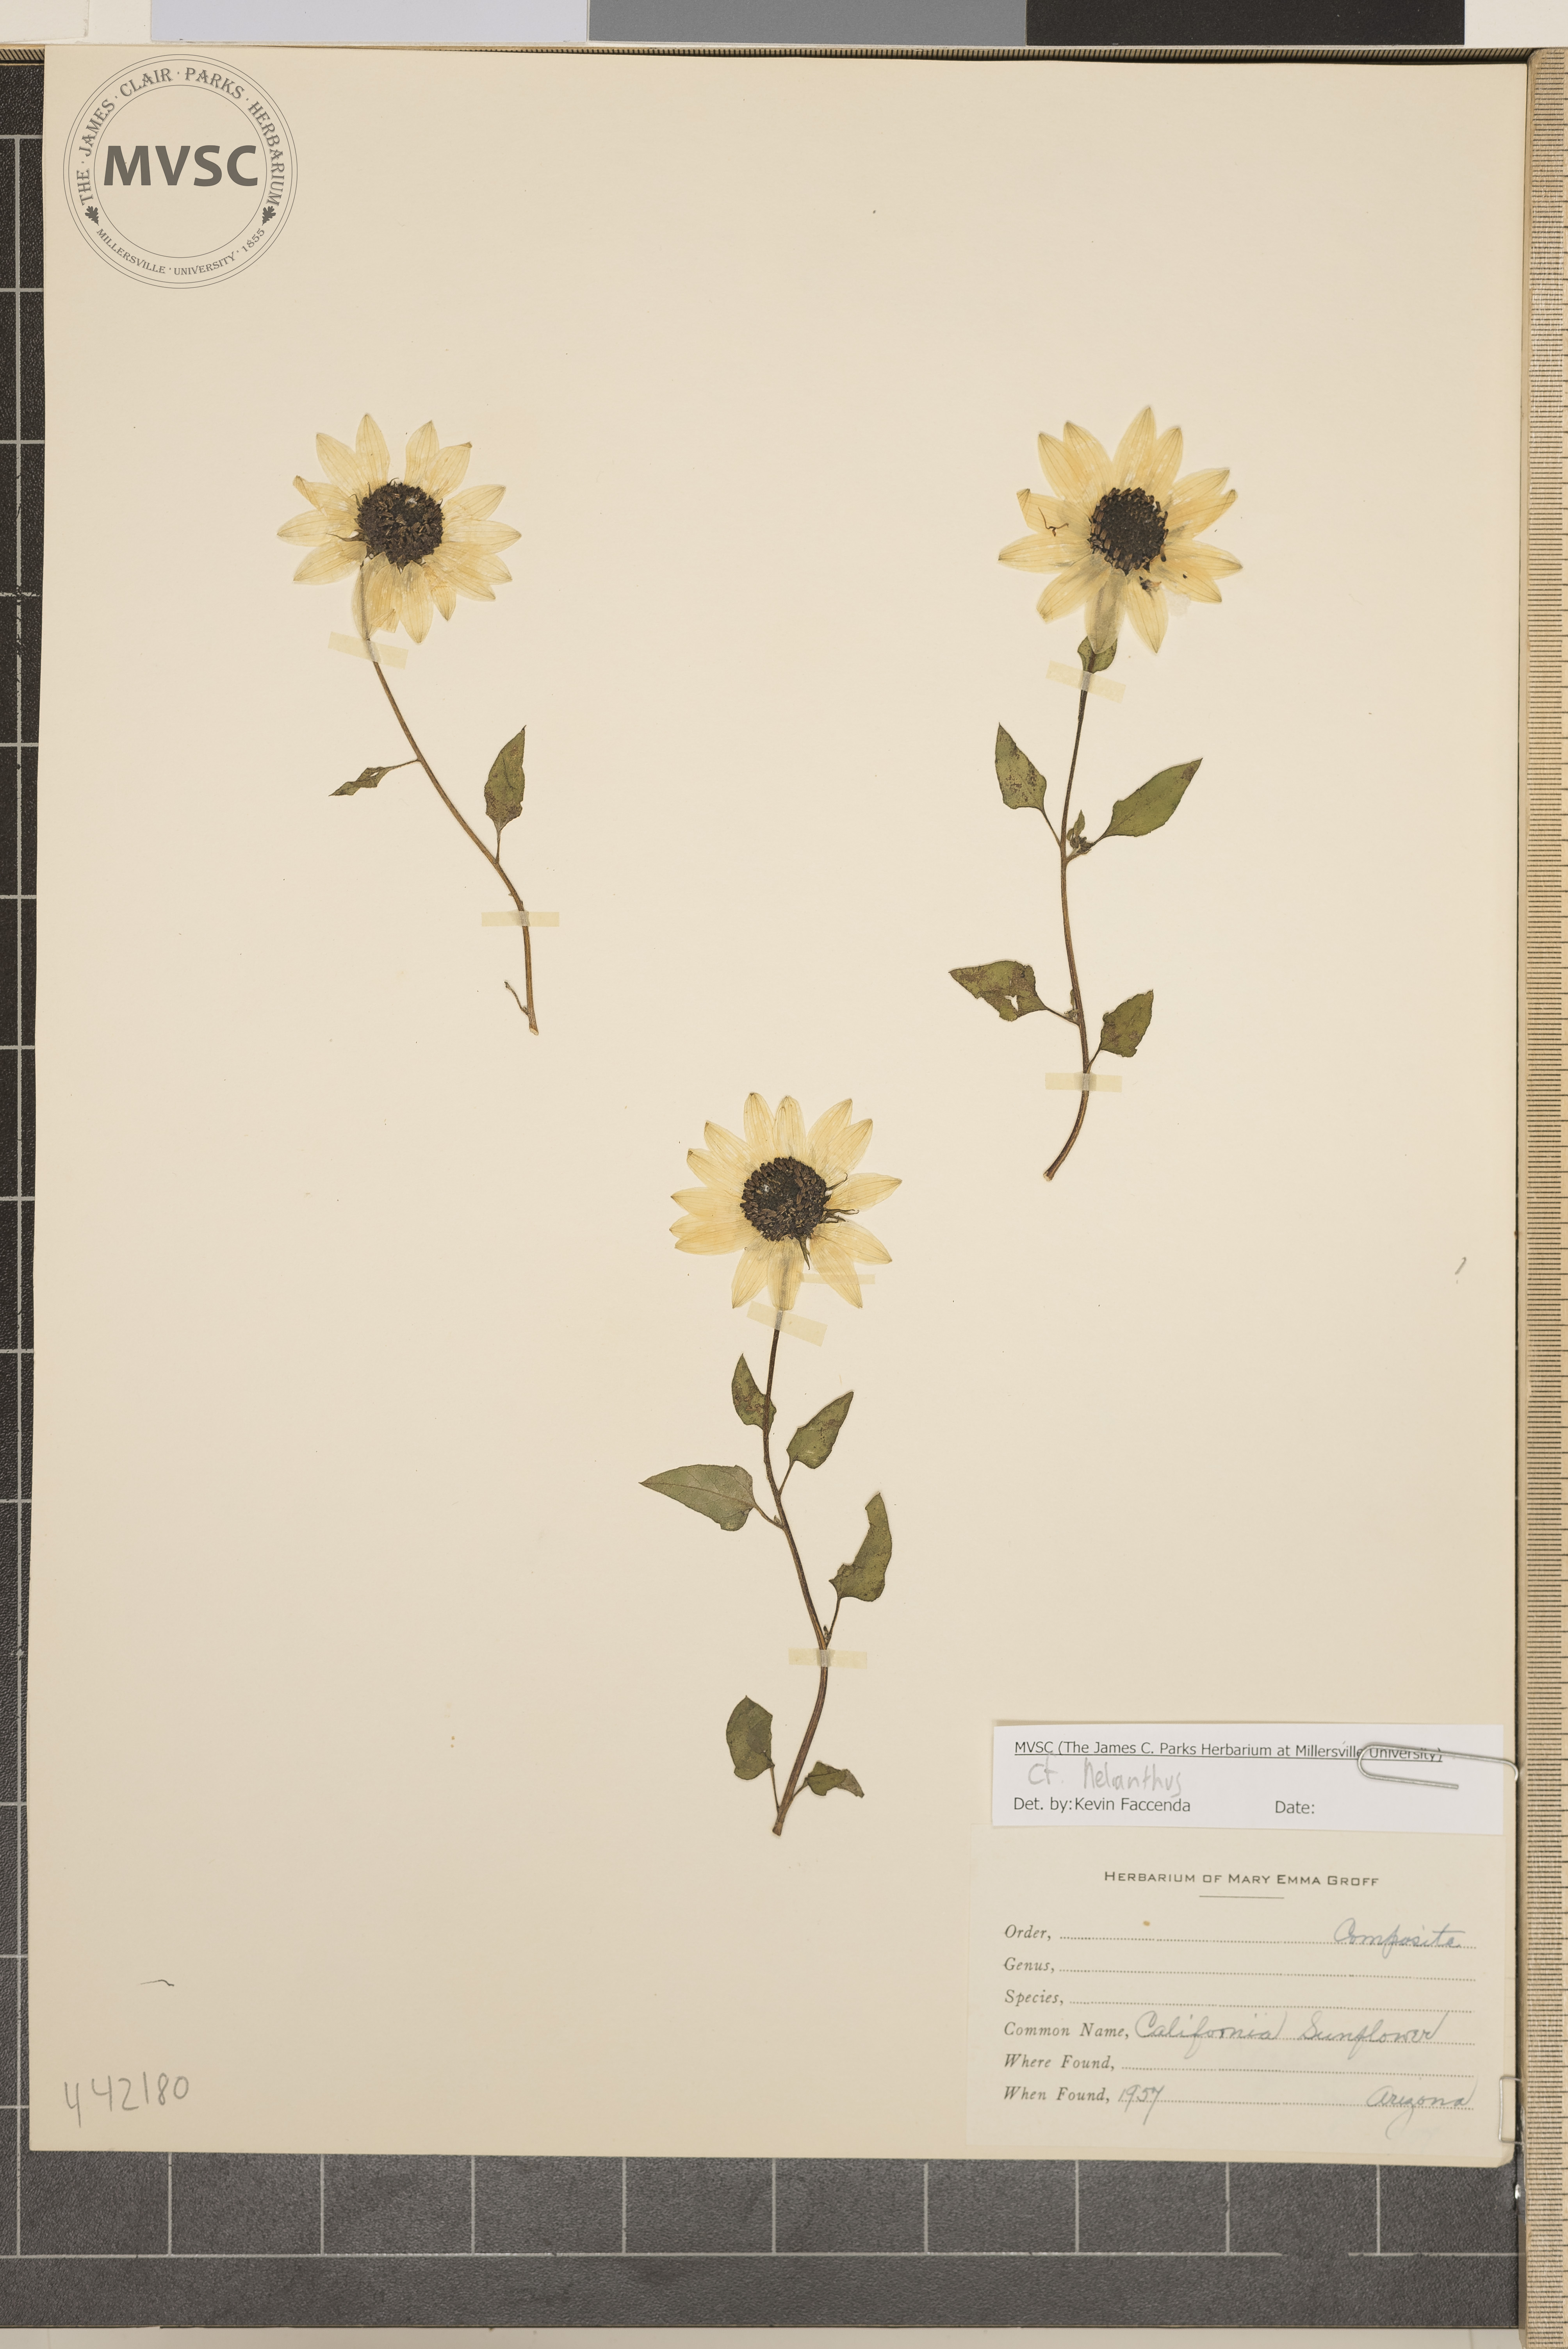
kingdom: Plantae
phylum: Tracheophyta
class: Magnoliopsida
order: Asterales
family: Asteraceae
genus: Helianthus
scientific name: Helianthus
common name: California sunflower
